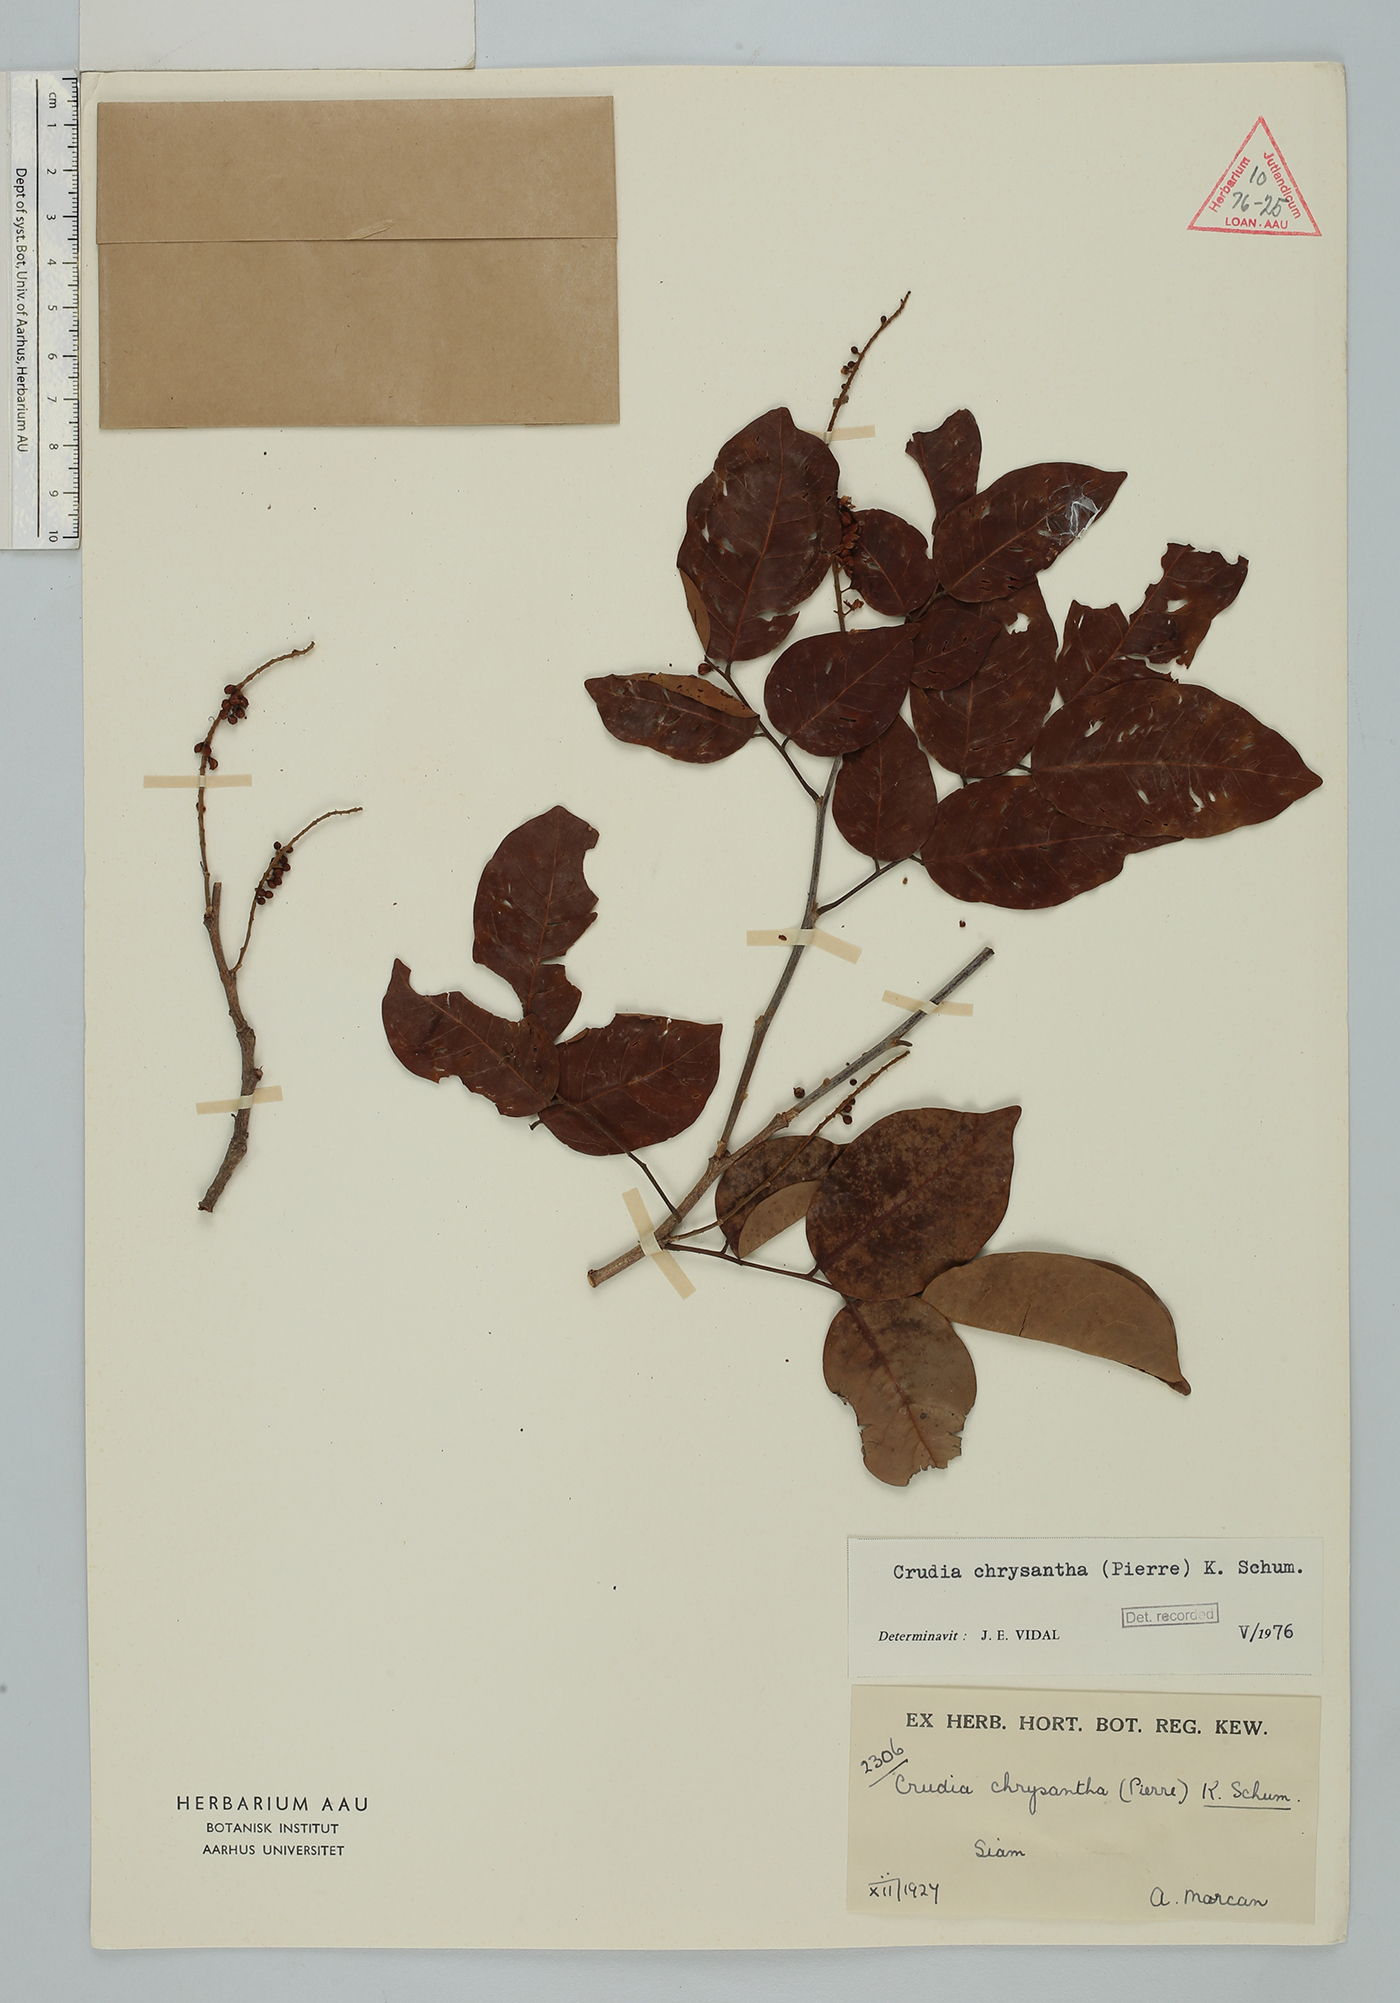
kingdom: Plantae
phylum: Tracheophyta
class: Magnoliopsida
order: Fabales
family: Fabaceae
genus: Crudia
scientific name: Crudia zeylanica
